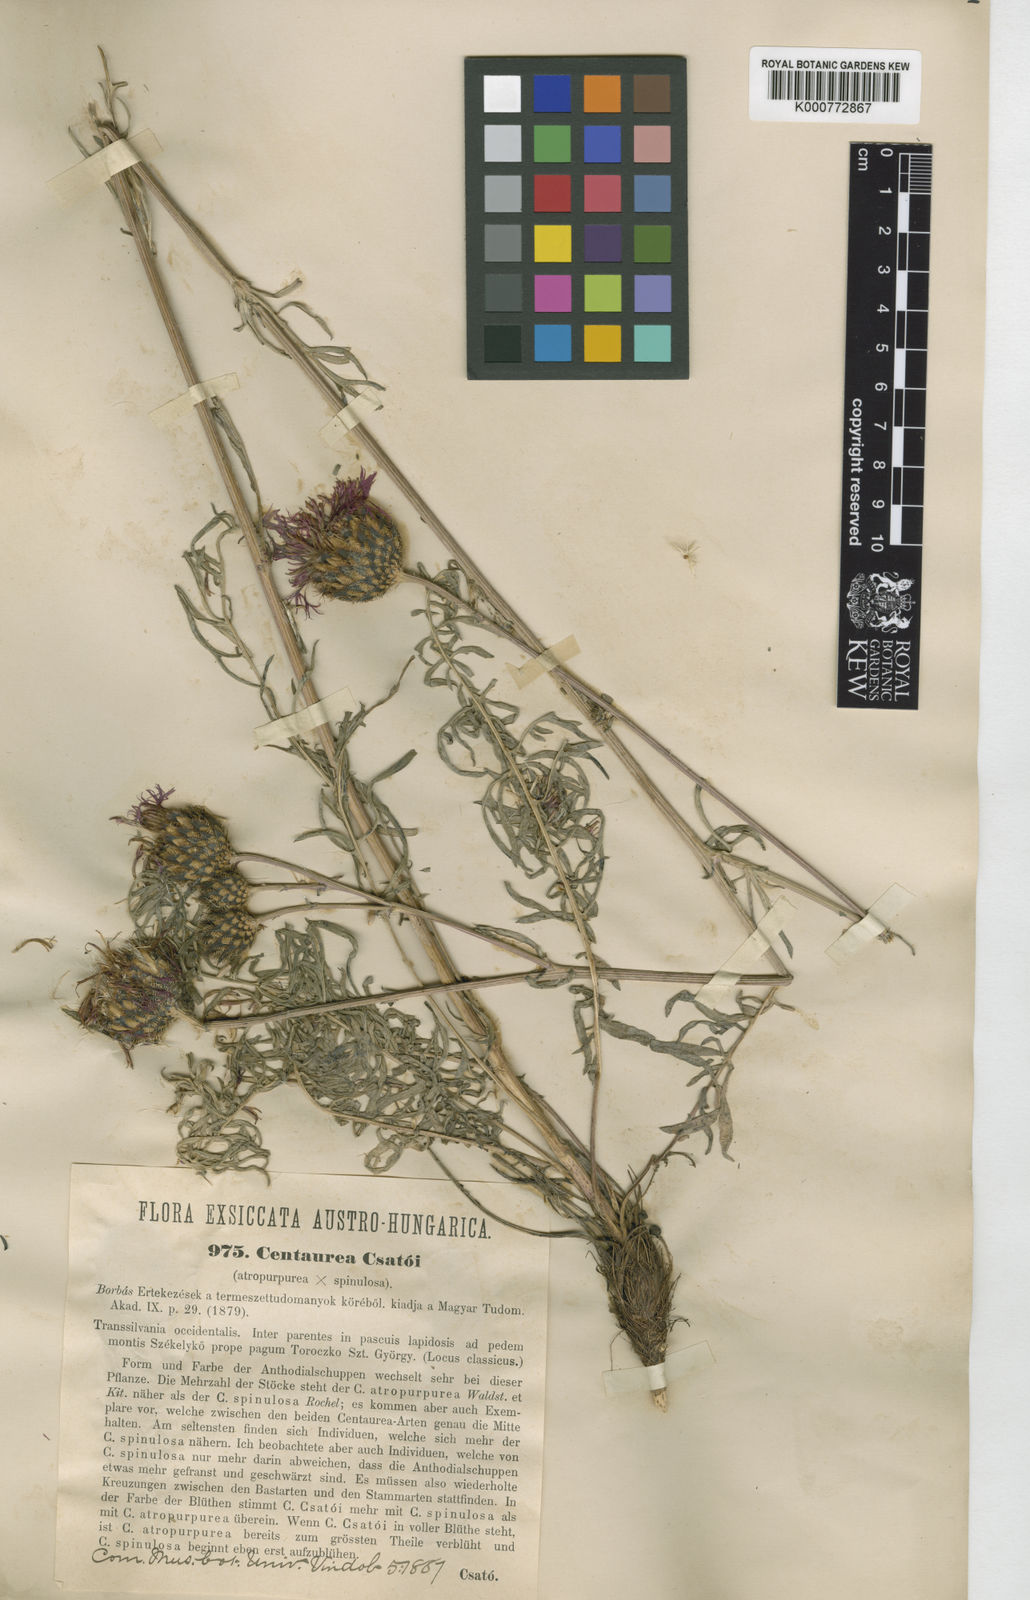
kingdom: Plantae
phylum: Tracheophyta
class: Magnoliopsida
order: Asterales
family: Asteraceae
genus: Centaurea
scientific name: Centaurea calocephala
